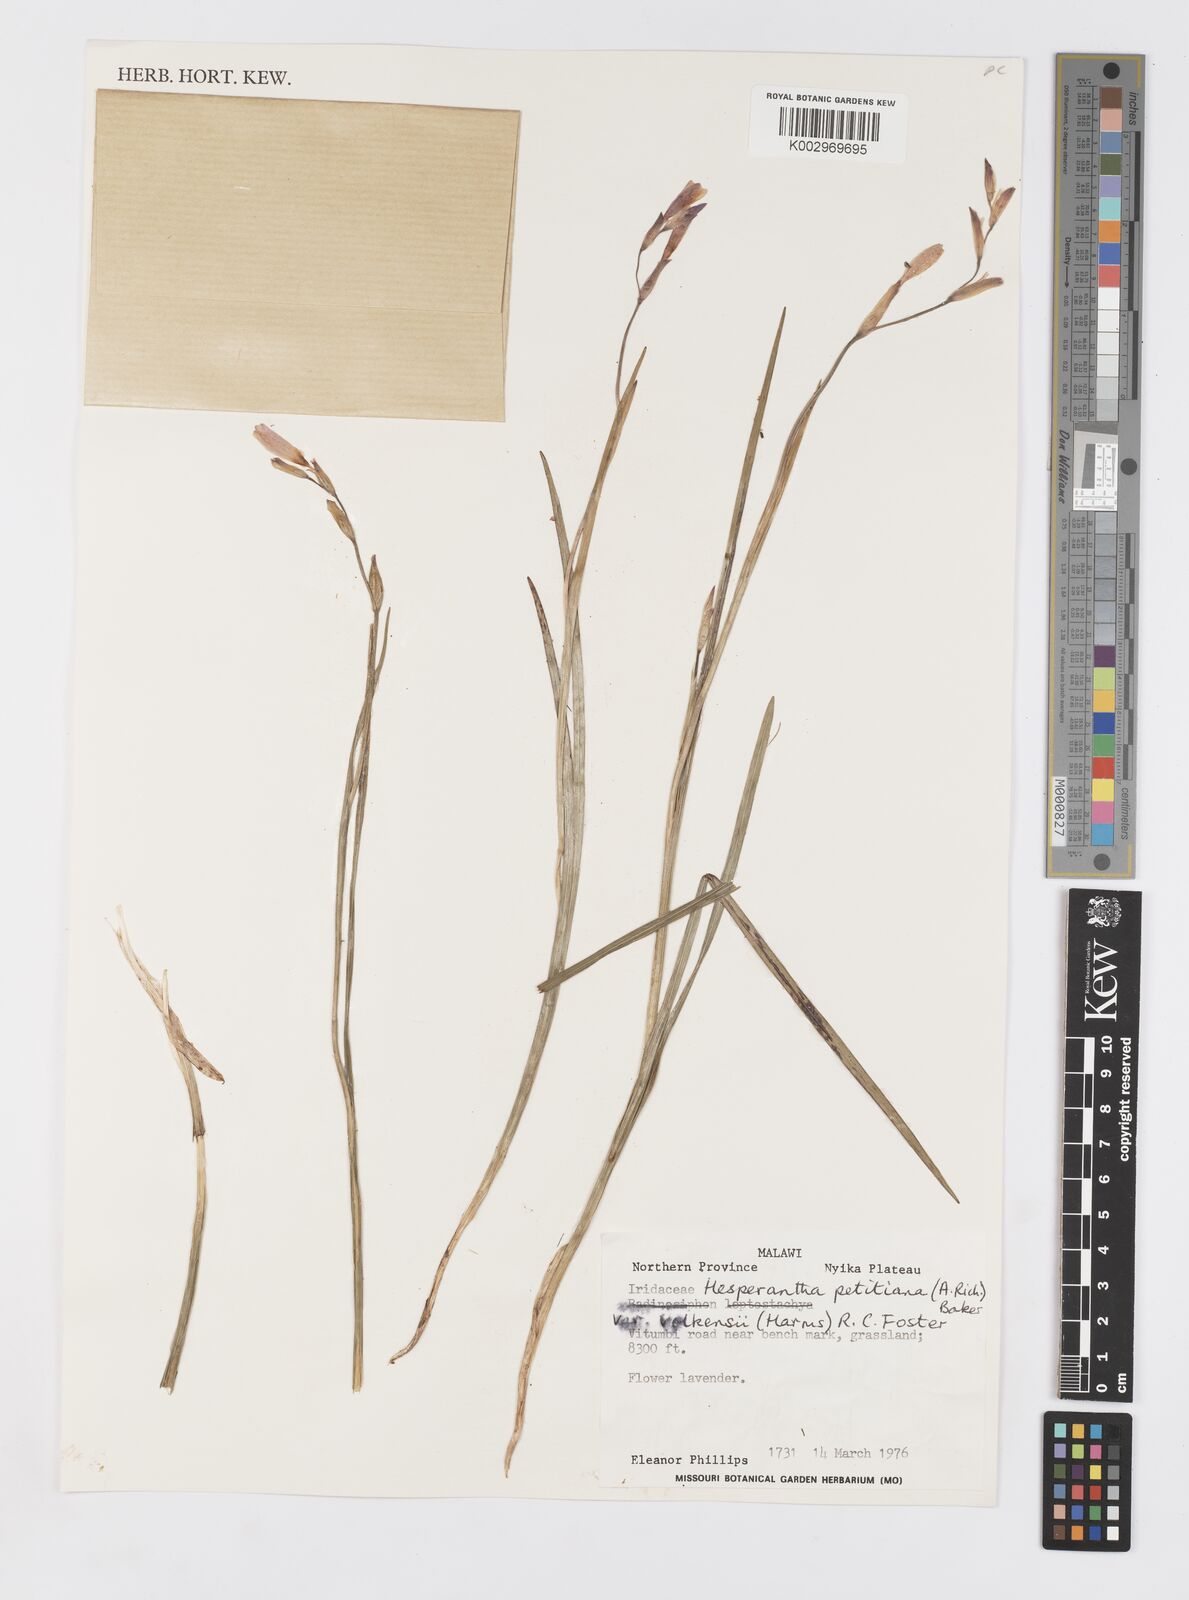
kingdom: Plantae
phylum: Tracheophyta
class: Liliopsida
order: Asparagales
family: Iridaceae
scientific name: Iridaceae
